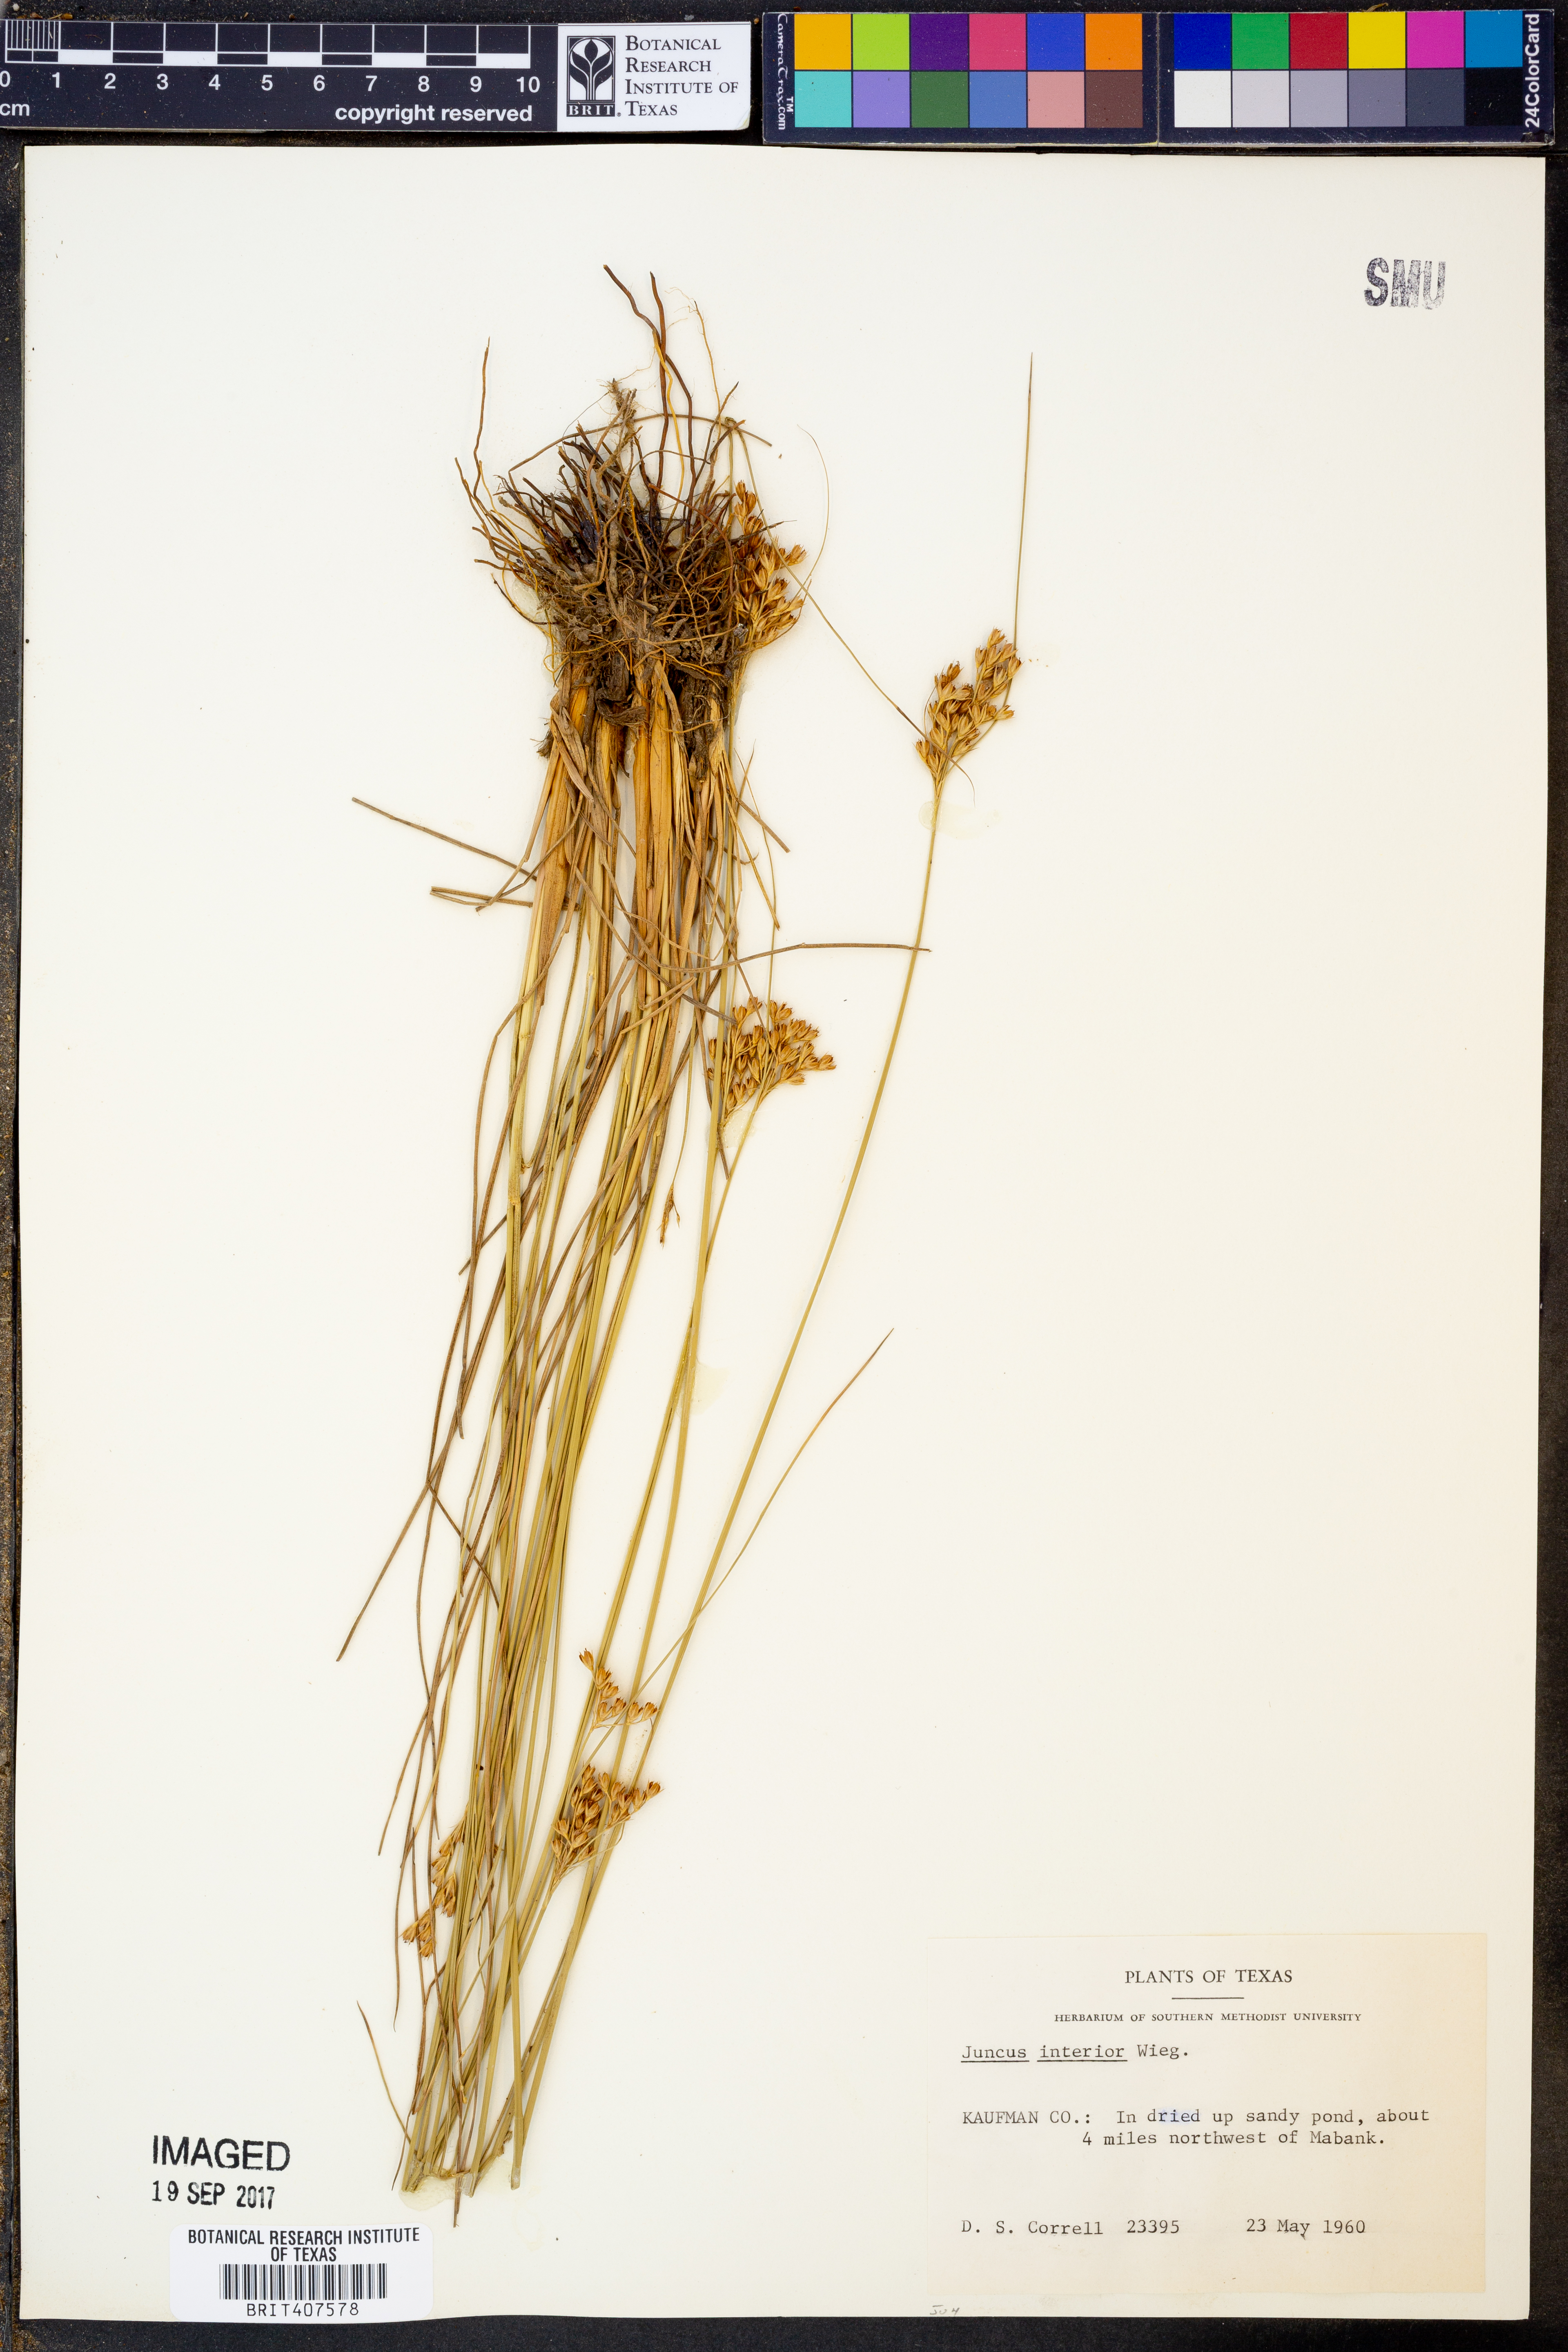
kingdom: Plantae
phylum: Tracheophyta
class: Liliopsida
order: Poales
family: Juncaceae
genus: Juncus
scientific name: Juncus interior
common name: Interior rush
